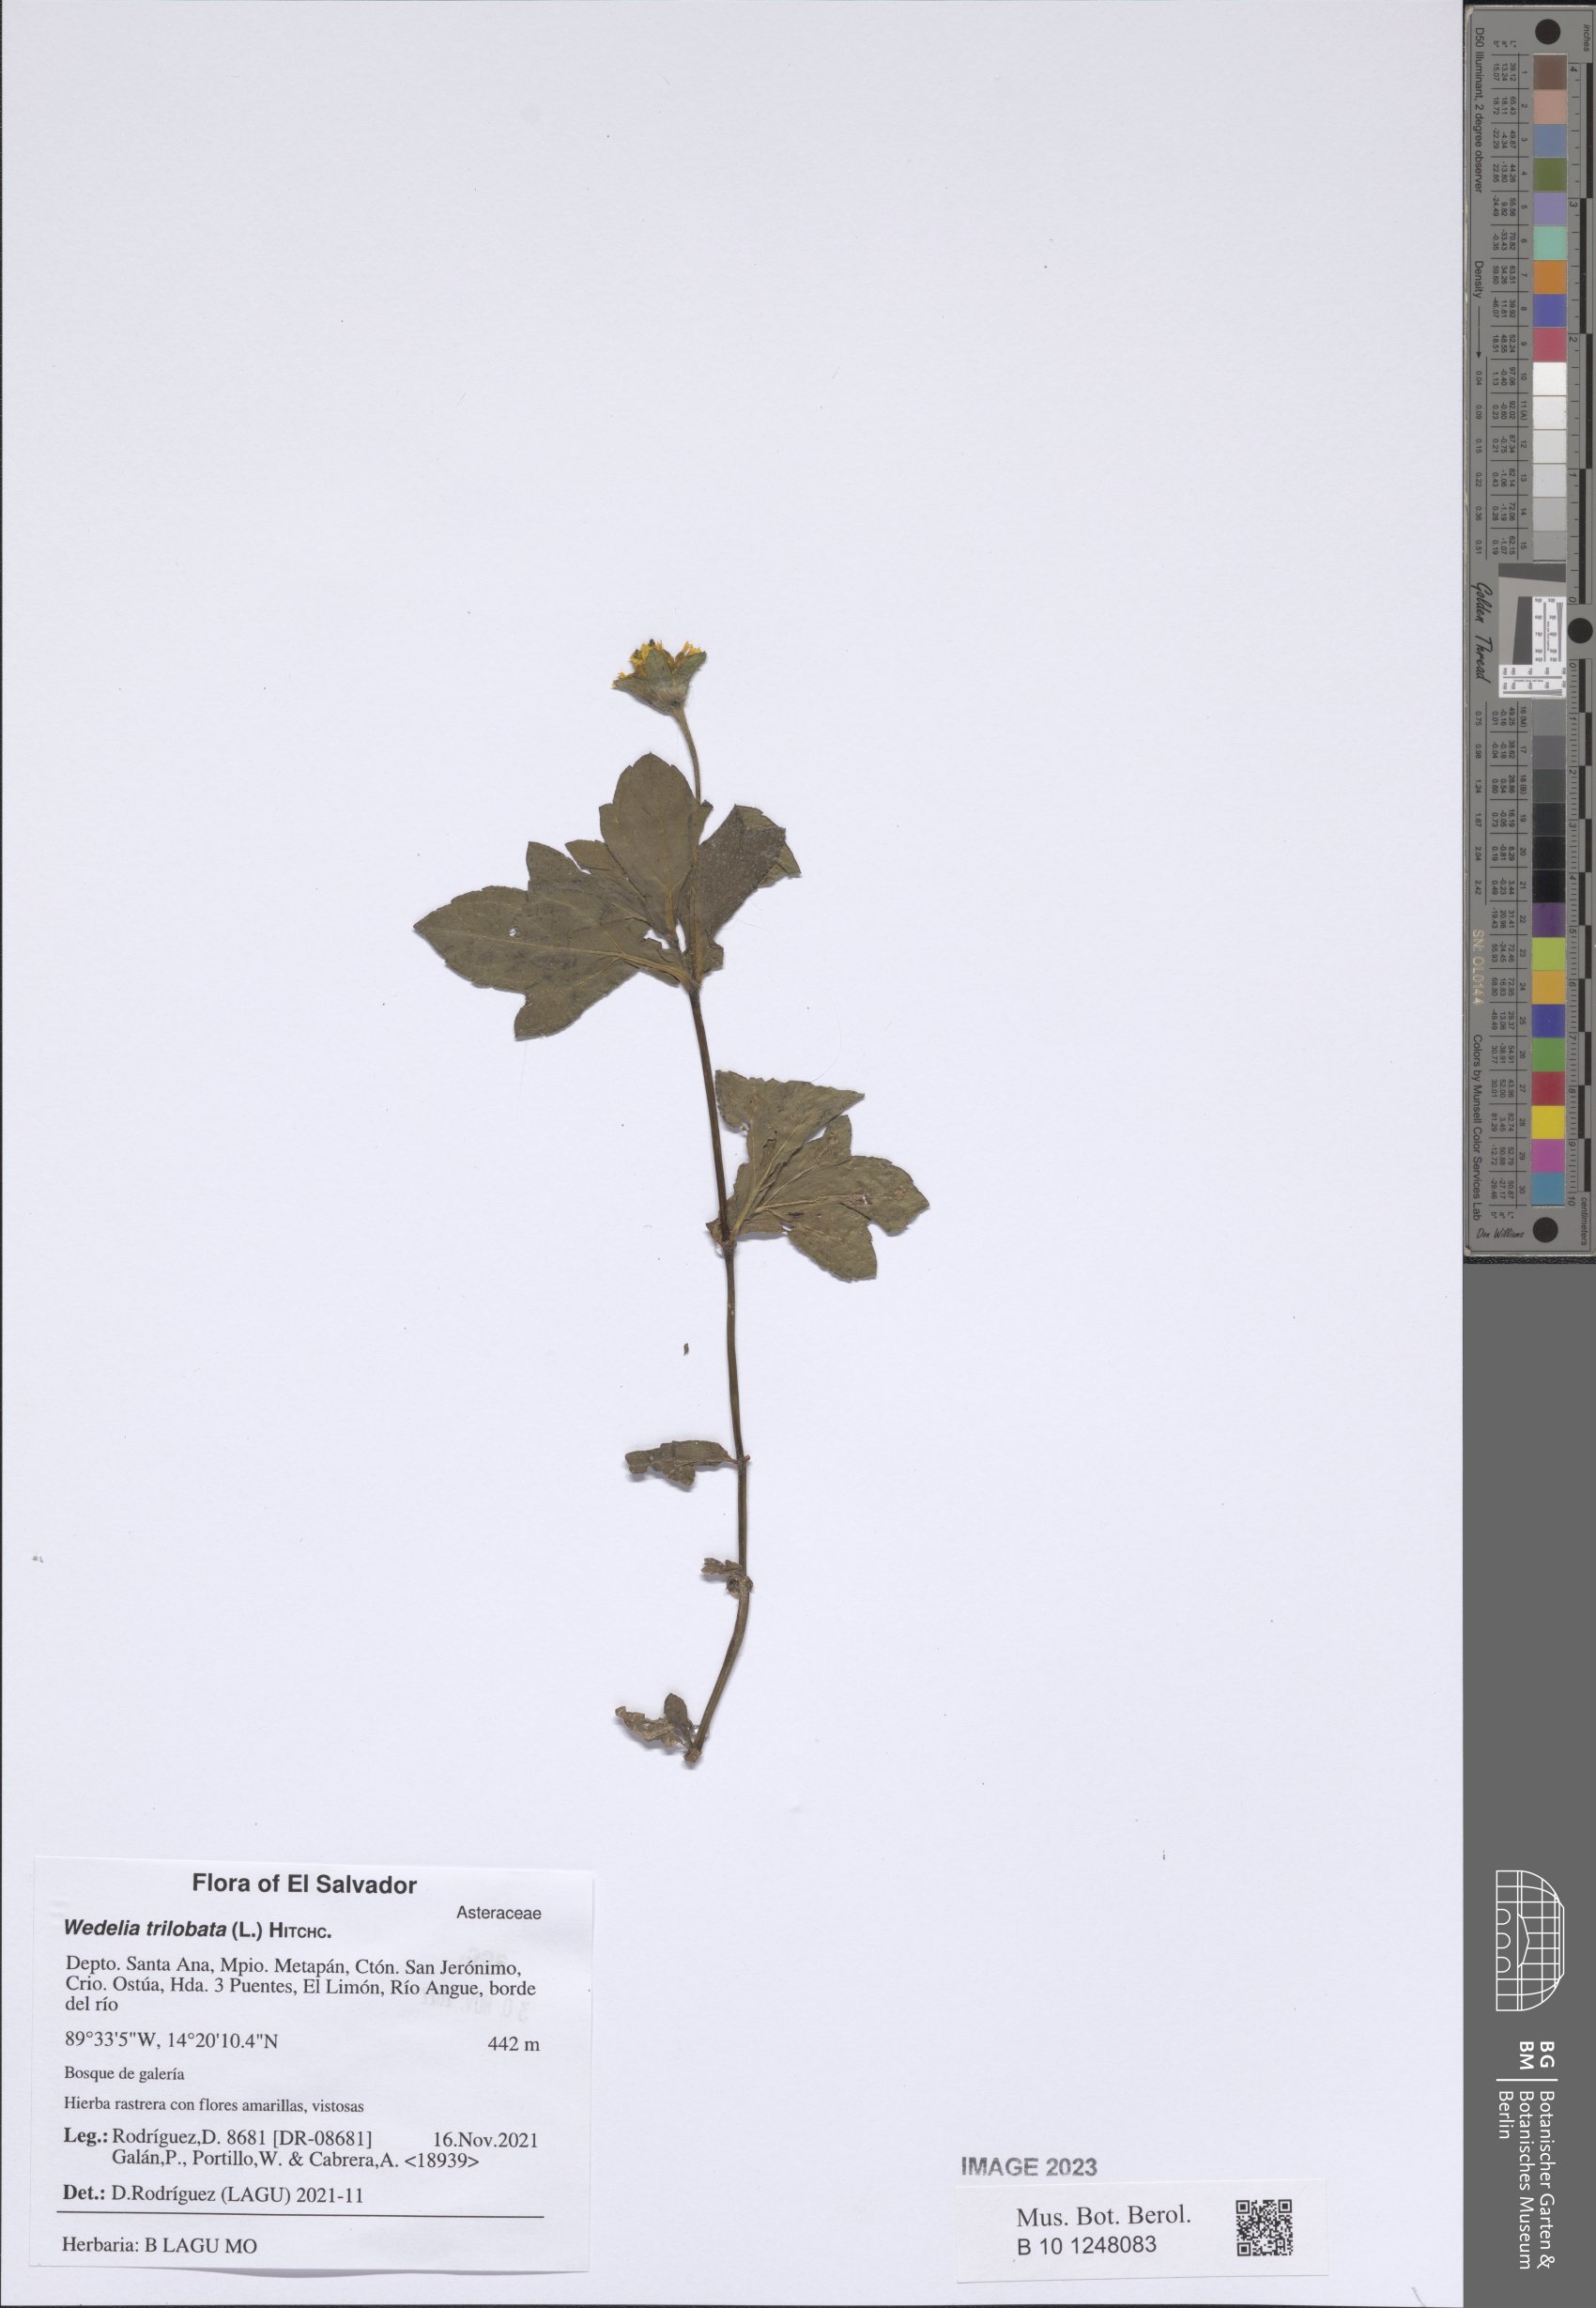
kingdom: Plantae
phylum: Tracheophyta
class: Magnoliopsida
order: Asterales
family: Asteraceae
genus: Sphagneticola
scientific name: Sphagneticola trilobata
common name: Bay biscayne creeping-oxeye
